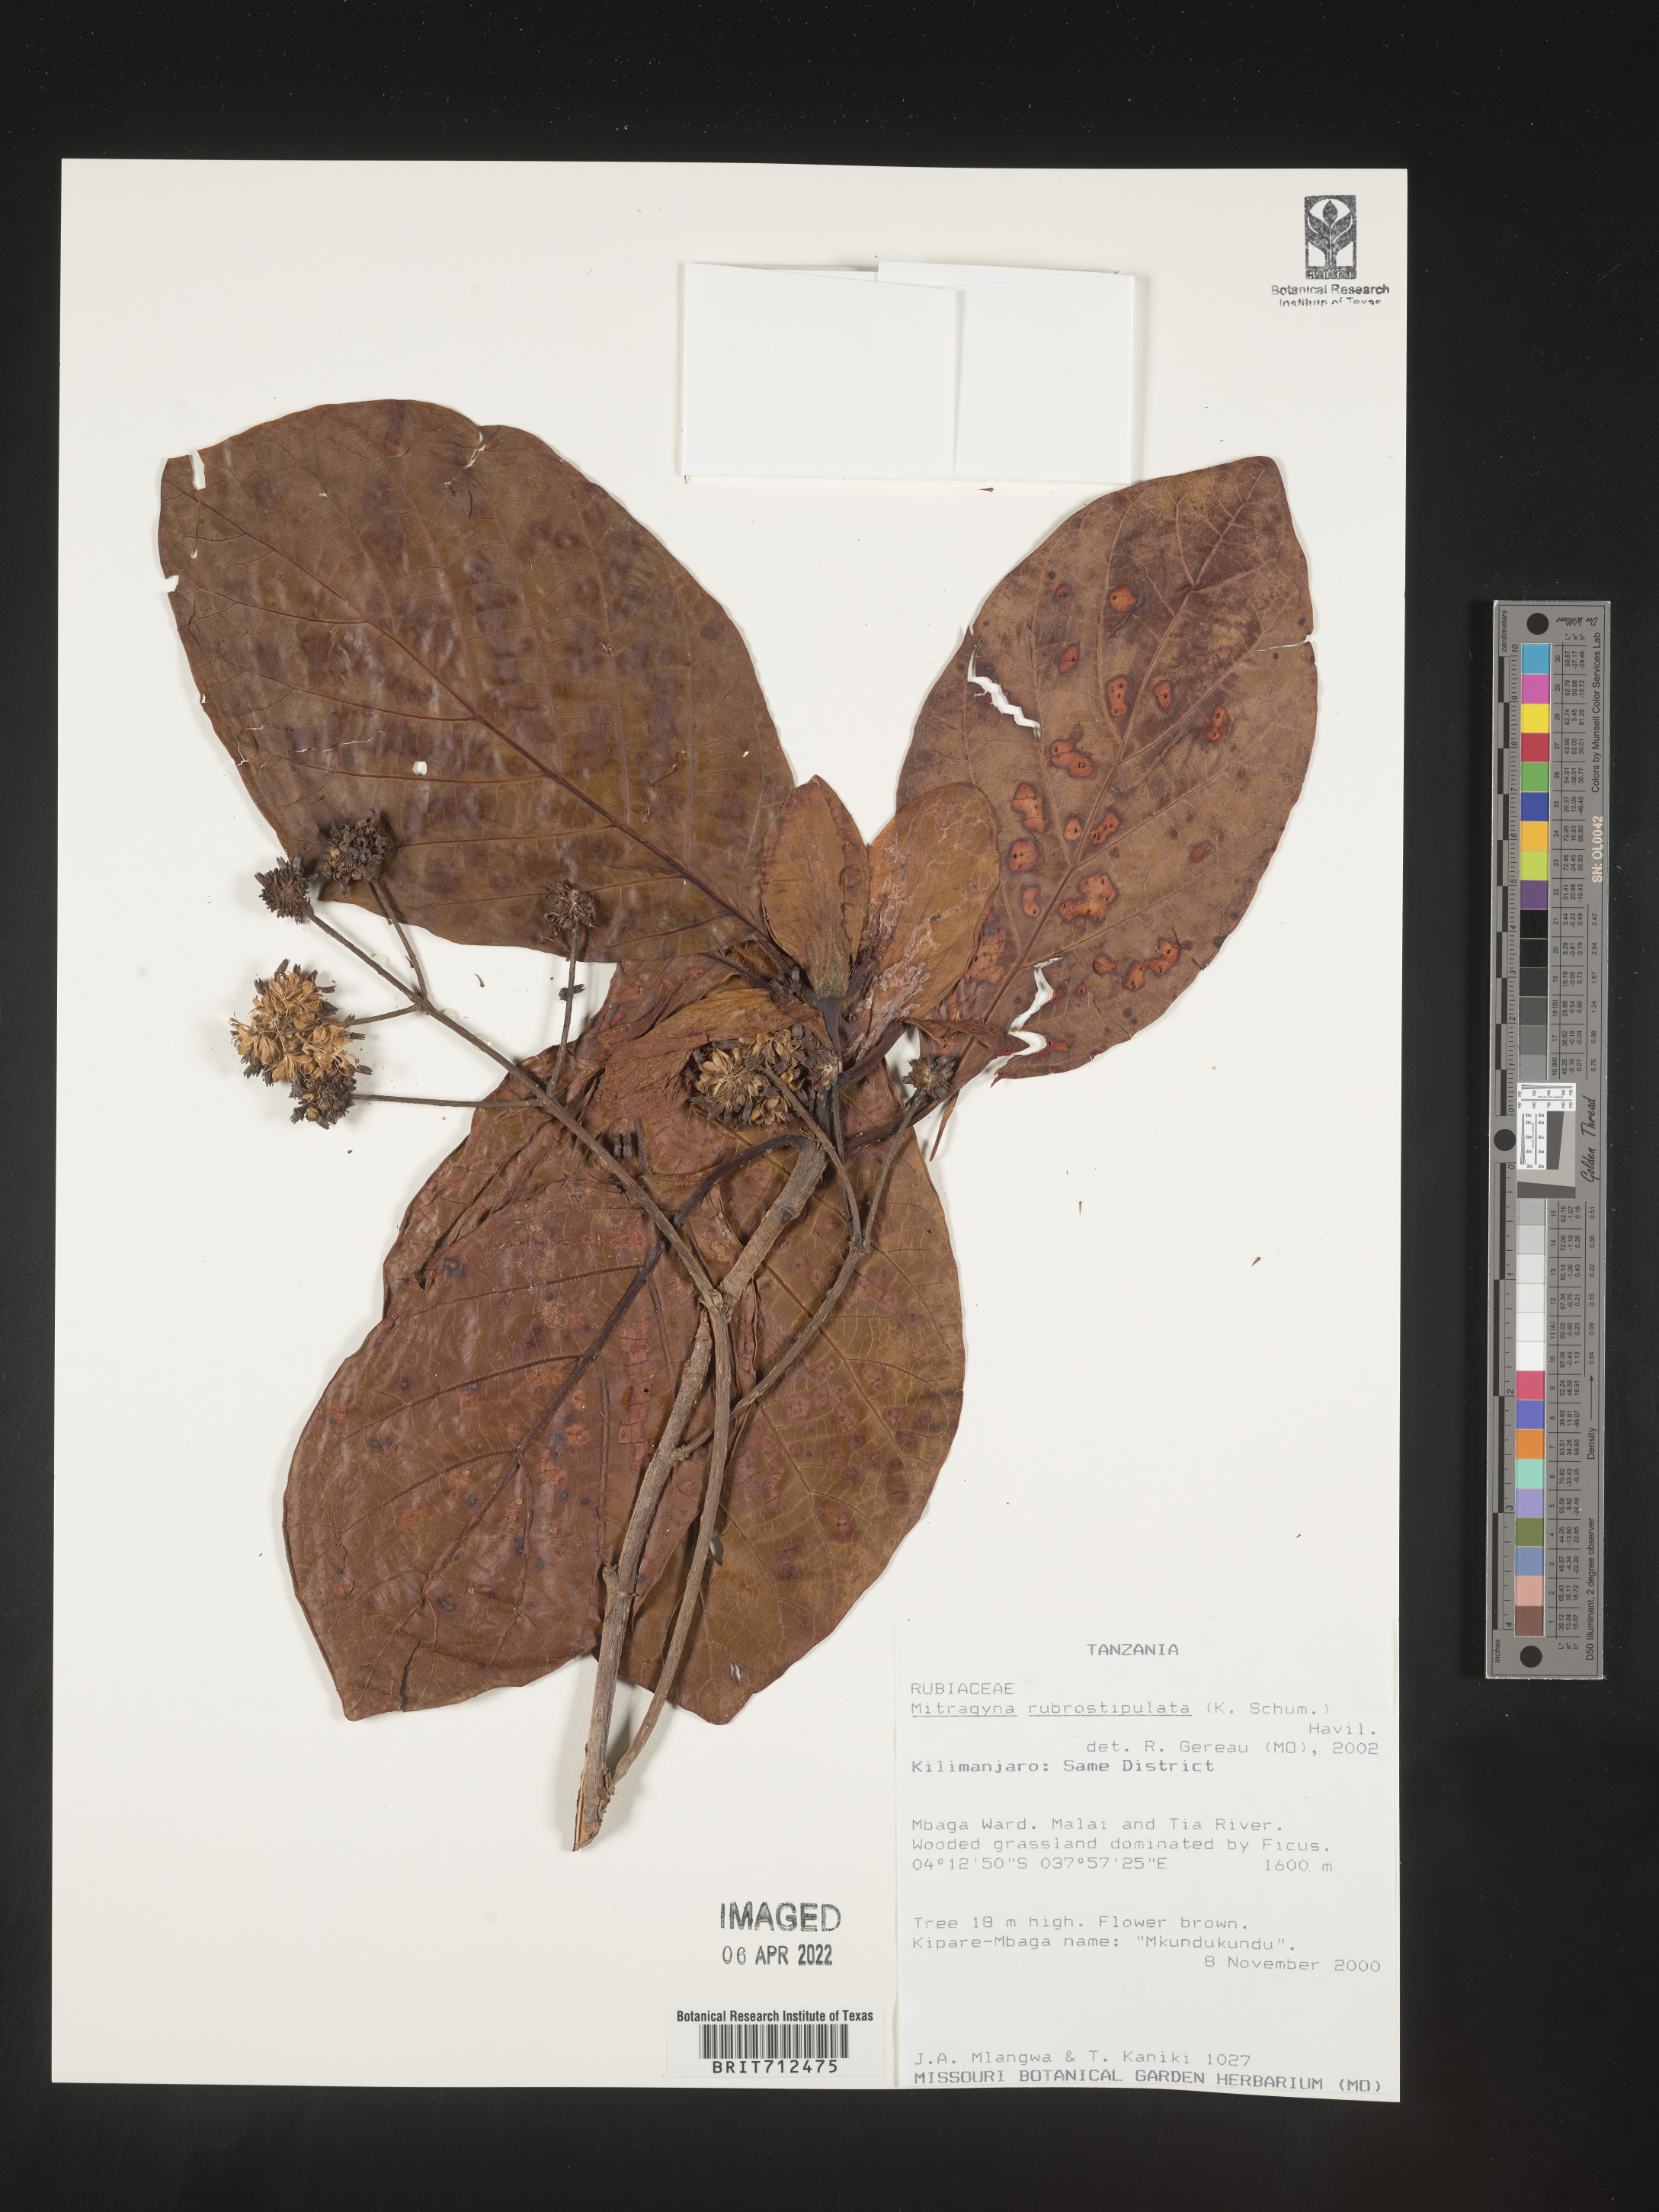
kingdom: Plantae
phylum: Tracheophyta
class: Magnoliopsida
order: Gentianales
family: Rubiaceae
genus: Mitragyna
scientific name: Mitragyna
